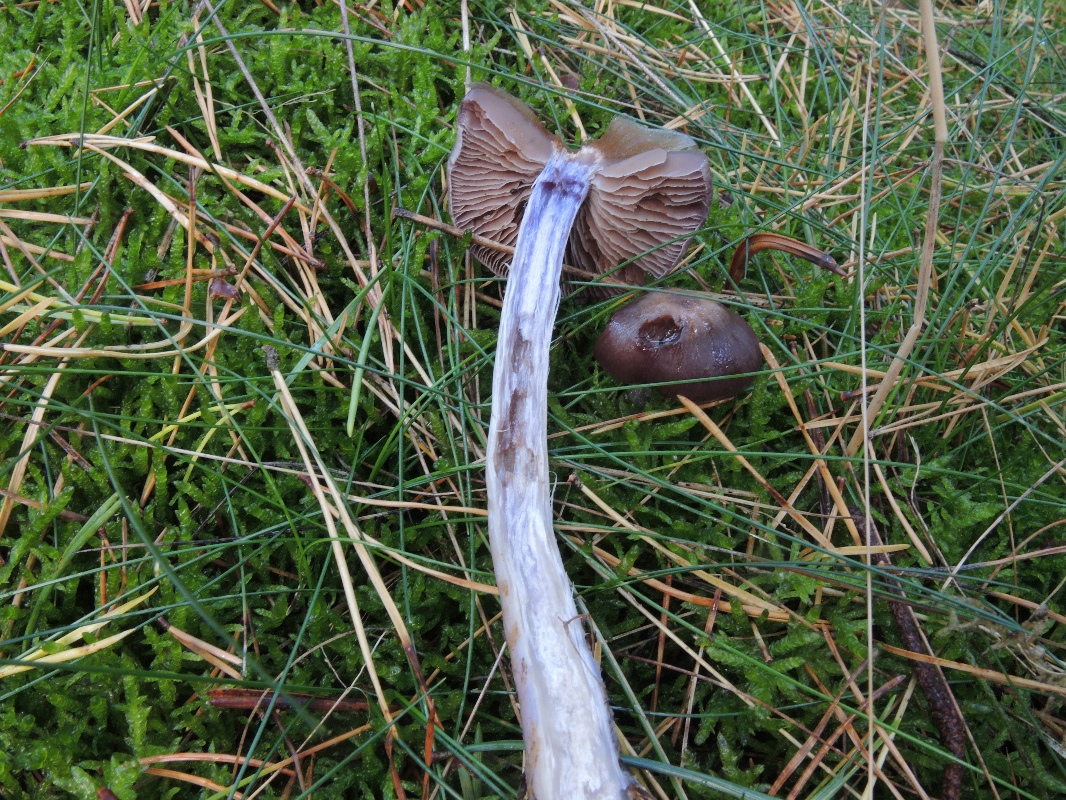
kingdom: Fungi
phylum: Basidiomycota
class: Agaricomycetes
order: Agaricales
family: Cortinariaceae
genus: Cortinarius
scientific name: Cortinarius kauffmanianus
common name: plantage-slørhat
